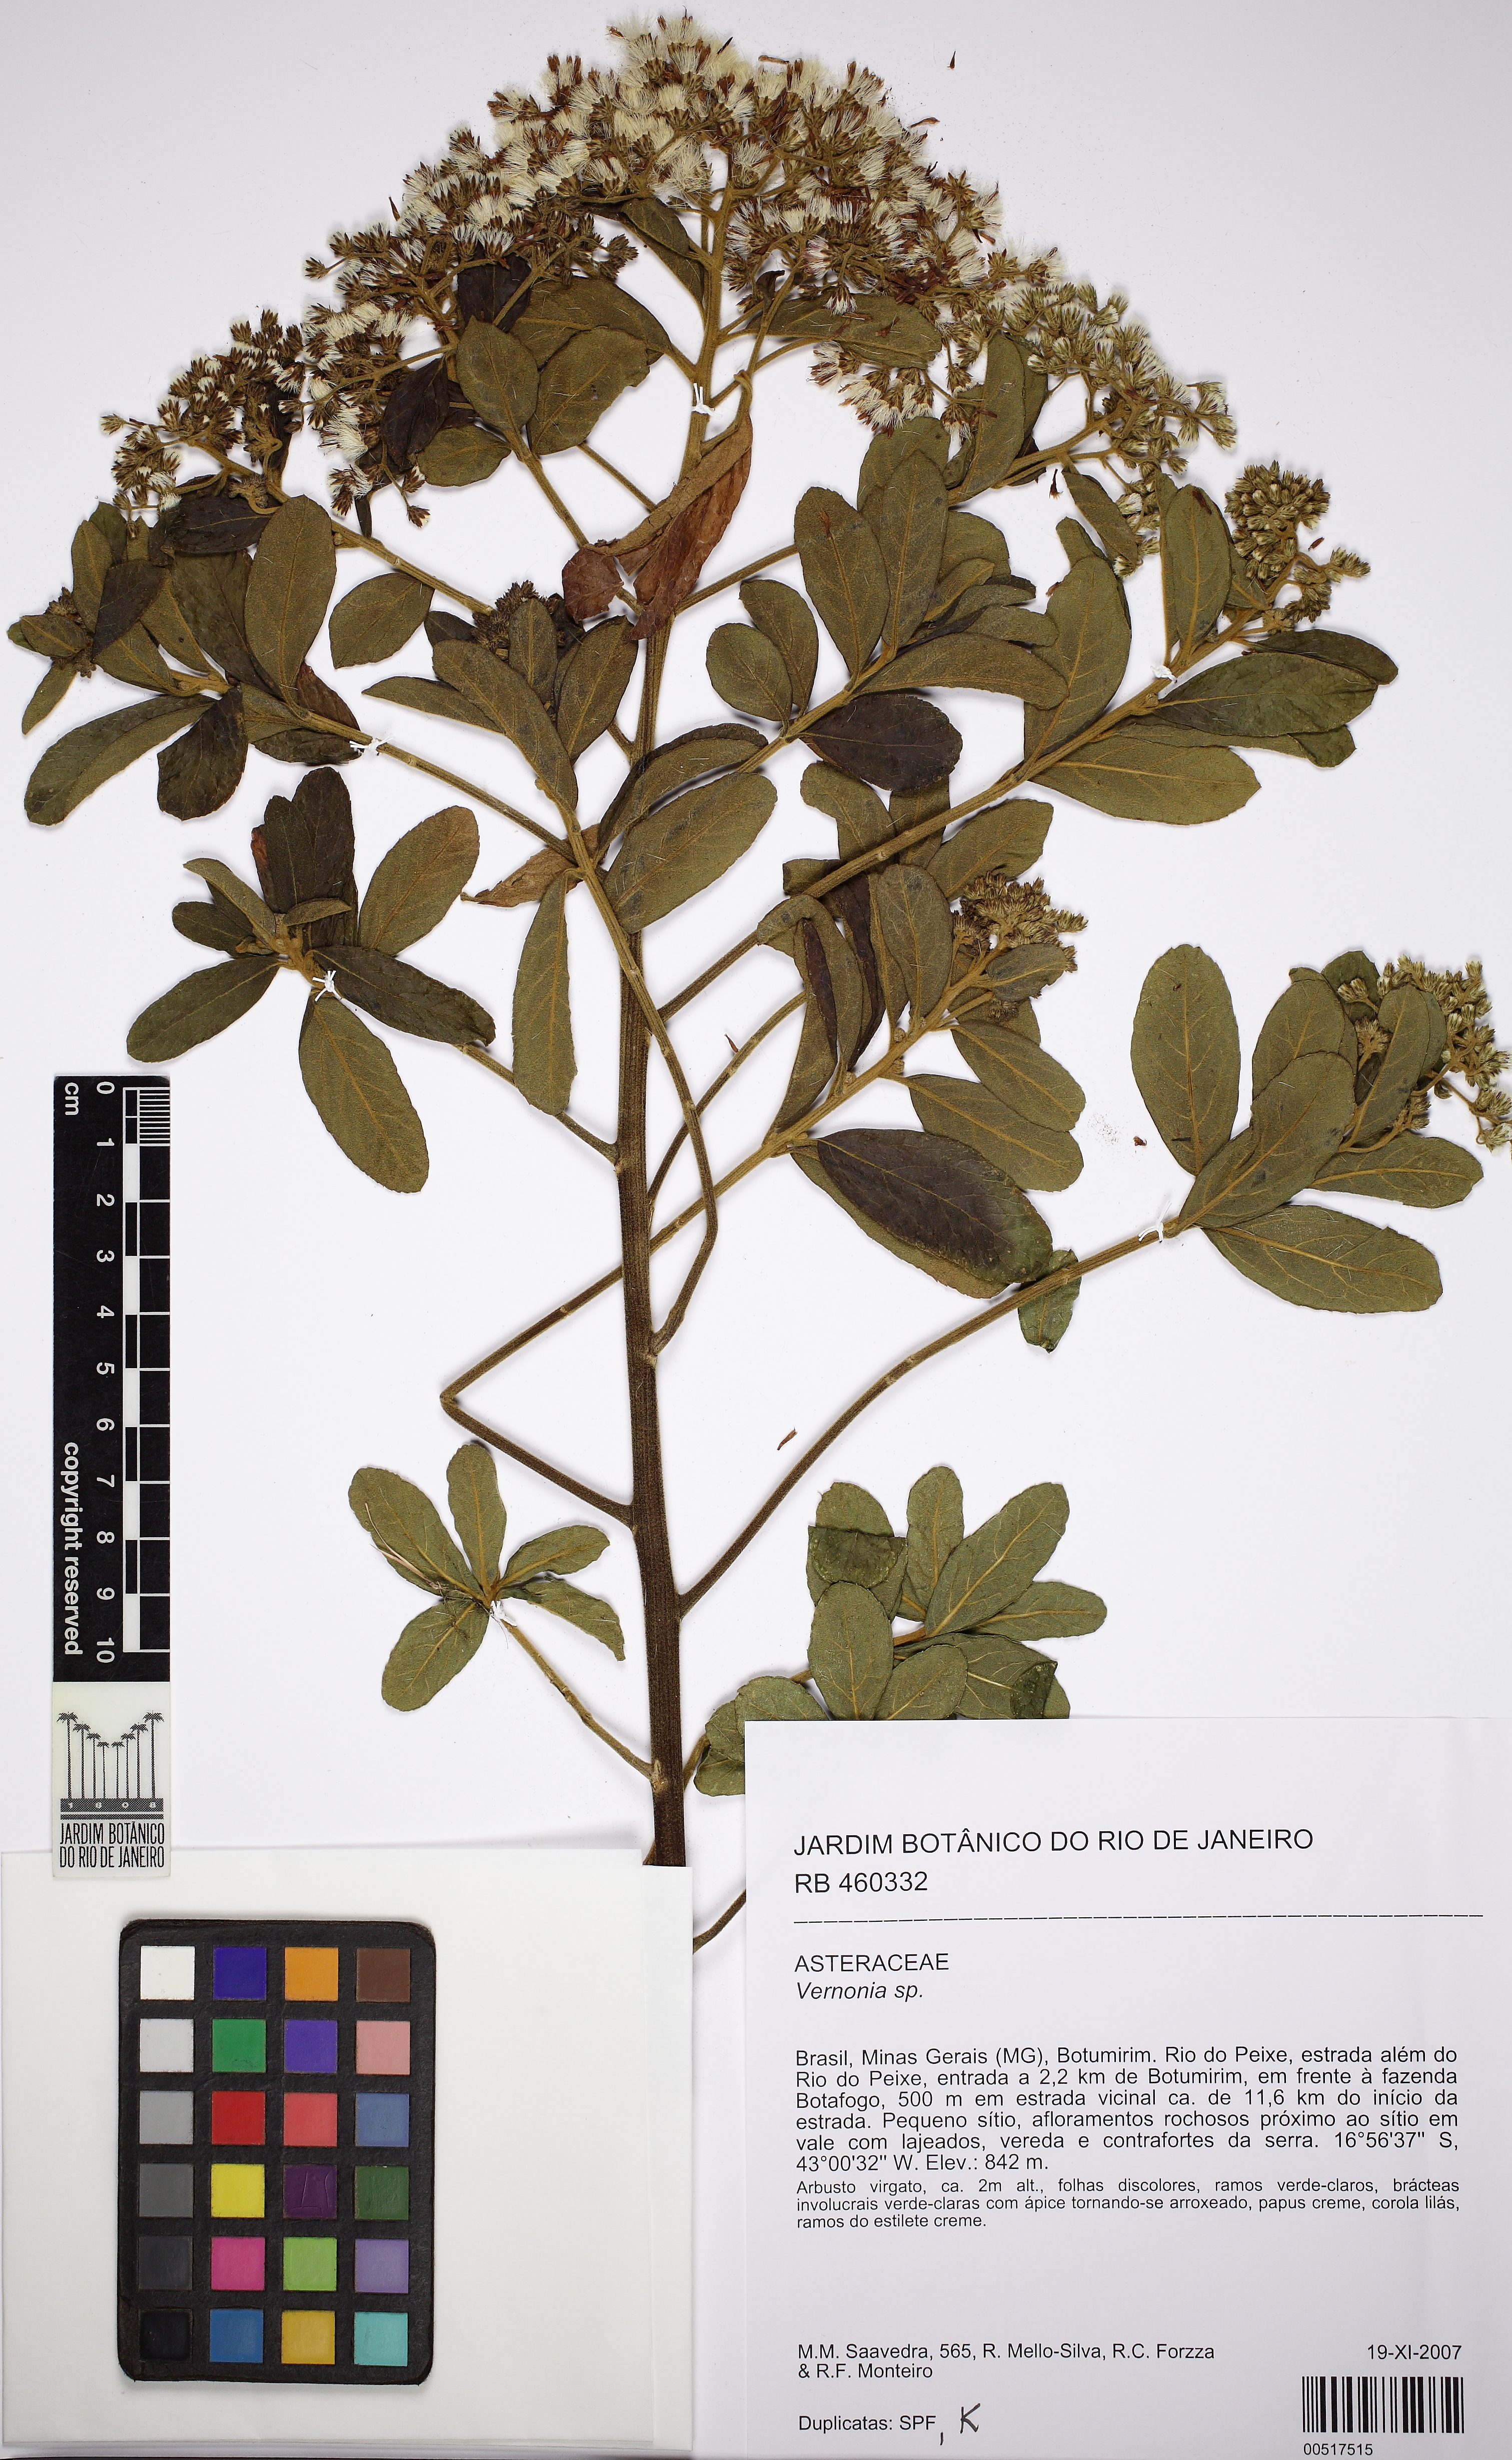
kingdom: Plantae
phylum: Tracheophyta
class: Magnoliopsida
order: Asterales
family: Asteraceae
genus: Vernonia
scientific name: Vernonia
